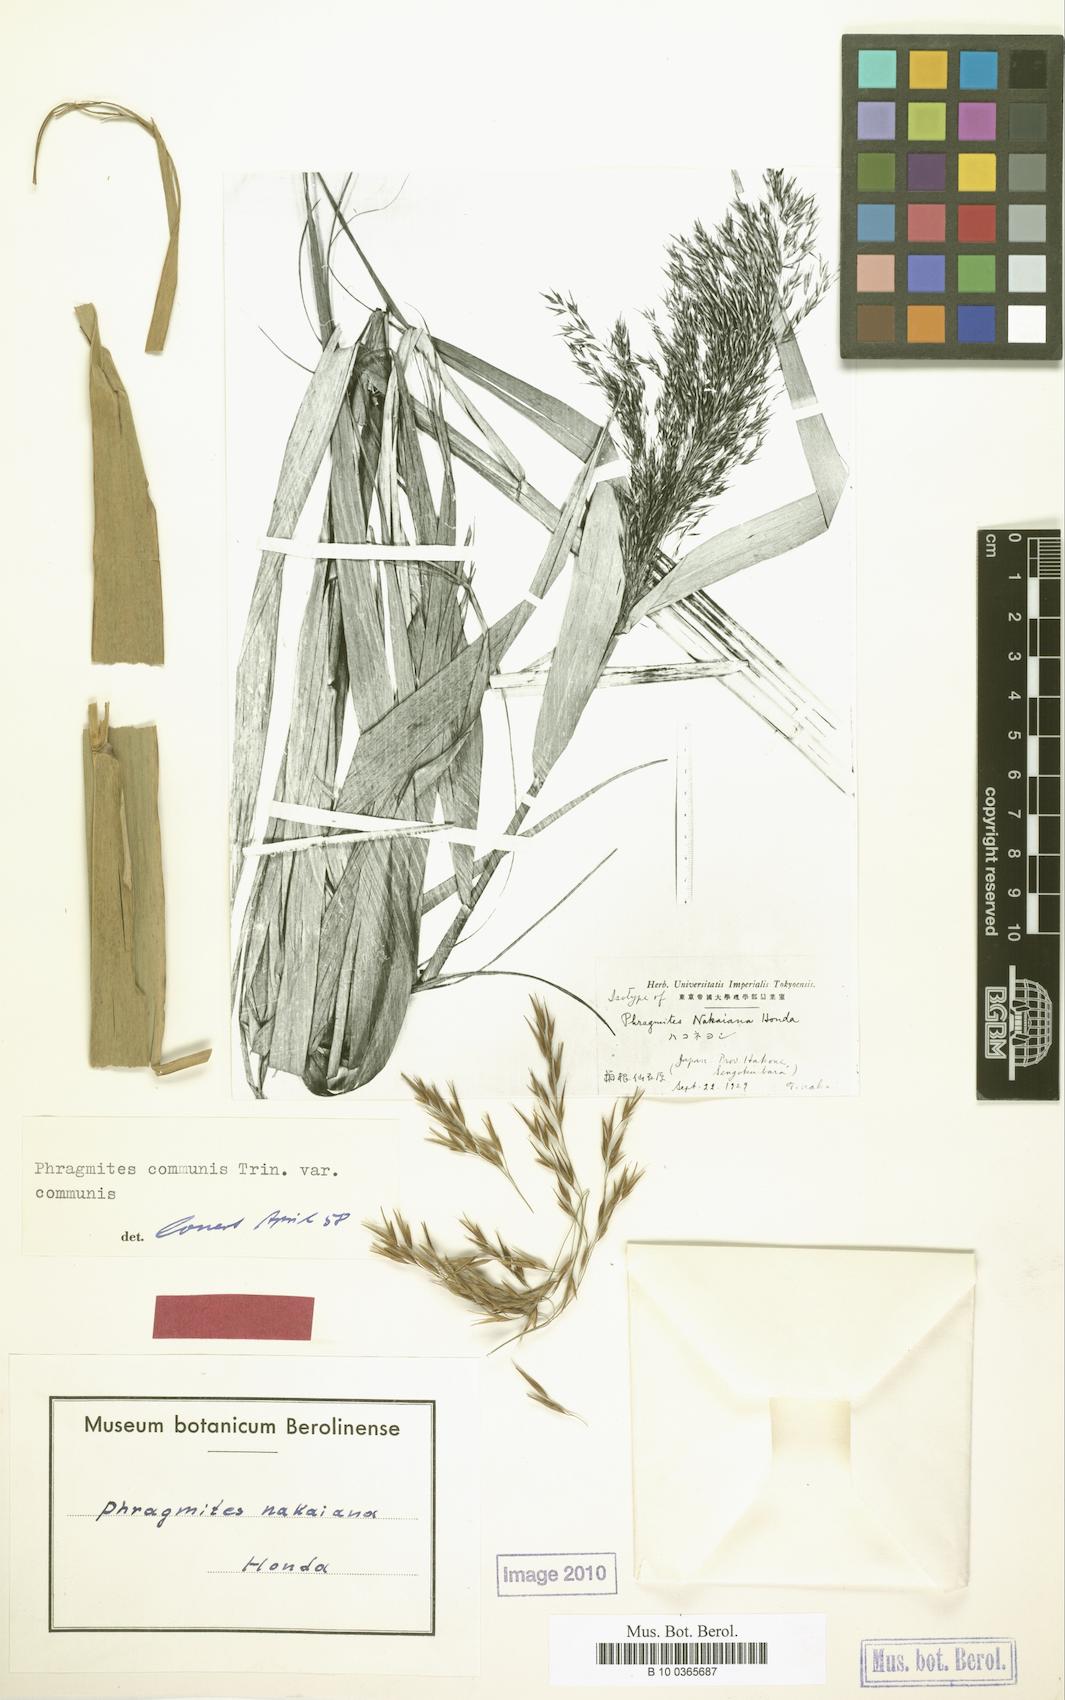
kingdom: Plantae
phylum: Tracheophyta
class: Liliopsida
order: Poales
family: Poaceae
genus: Phragmites
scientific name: Phragmites australis
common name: Common reed
